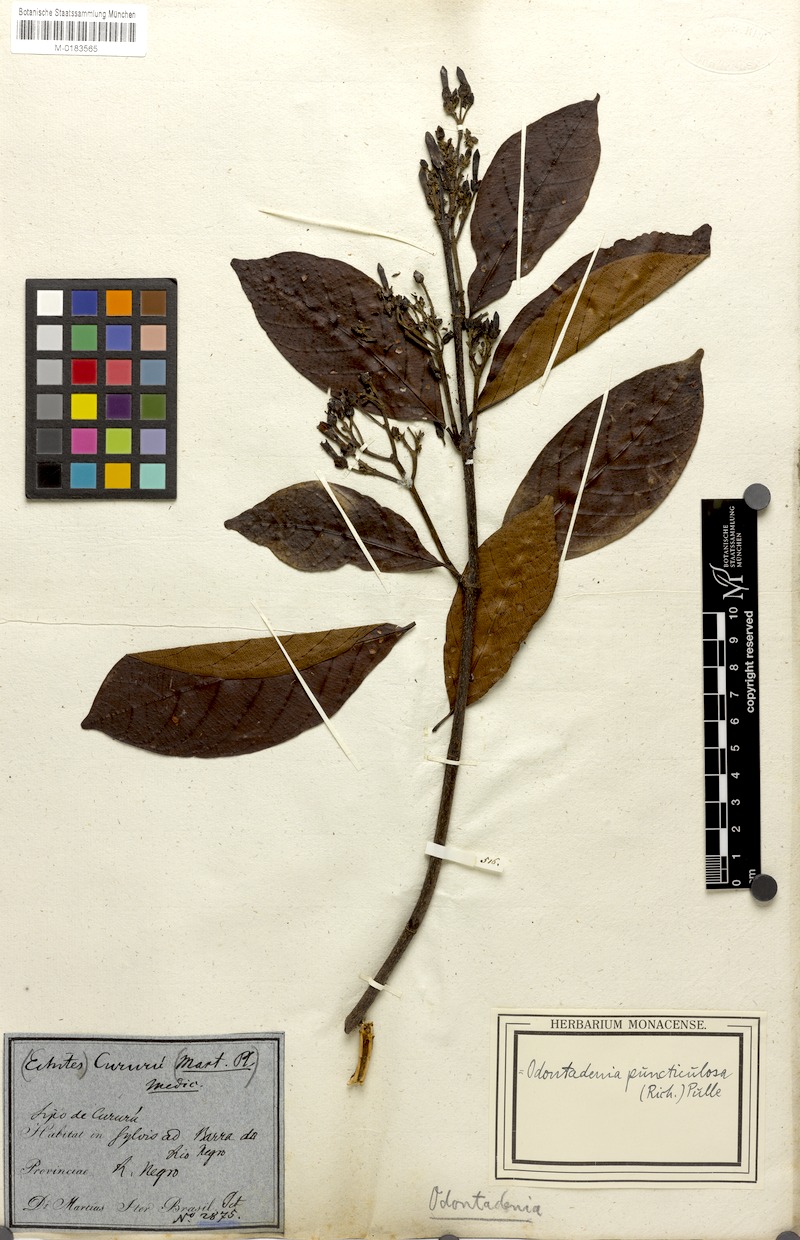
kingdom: Plantae
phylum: Tracheophyta
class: Magnoliopsida
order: Gentianales
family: Apocynaceae
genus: Odontadenia
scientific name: Odontadenia puncticulosa
